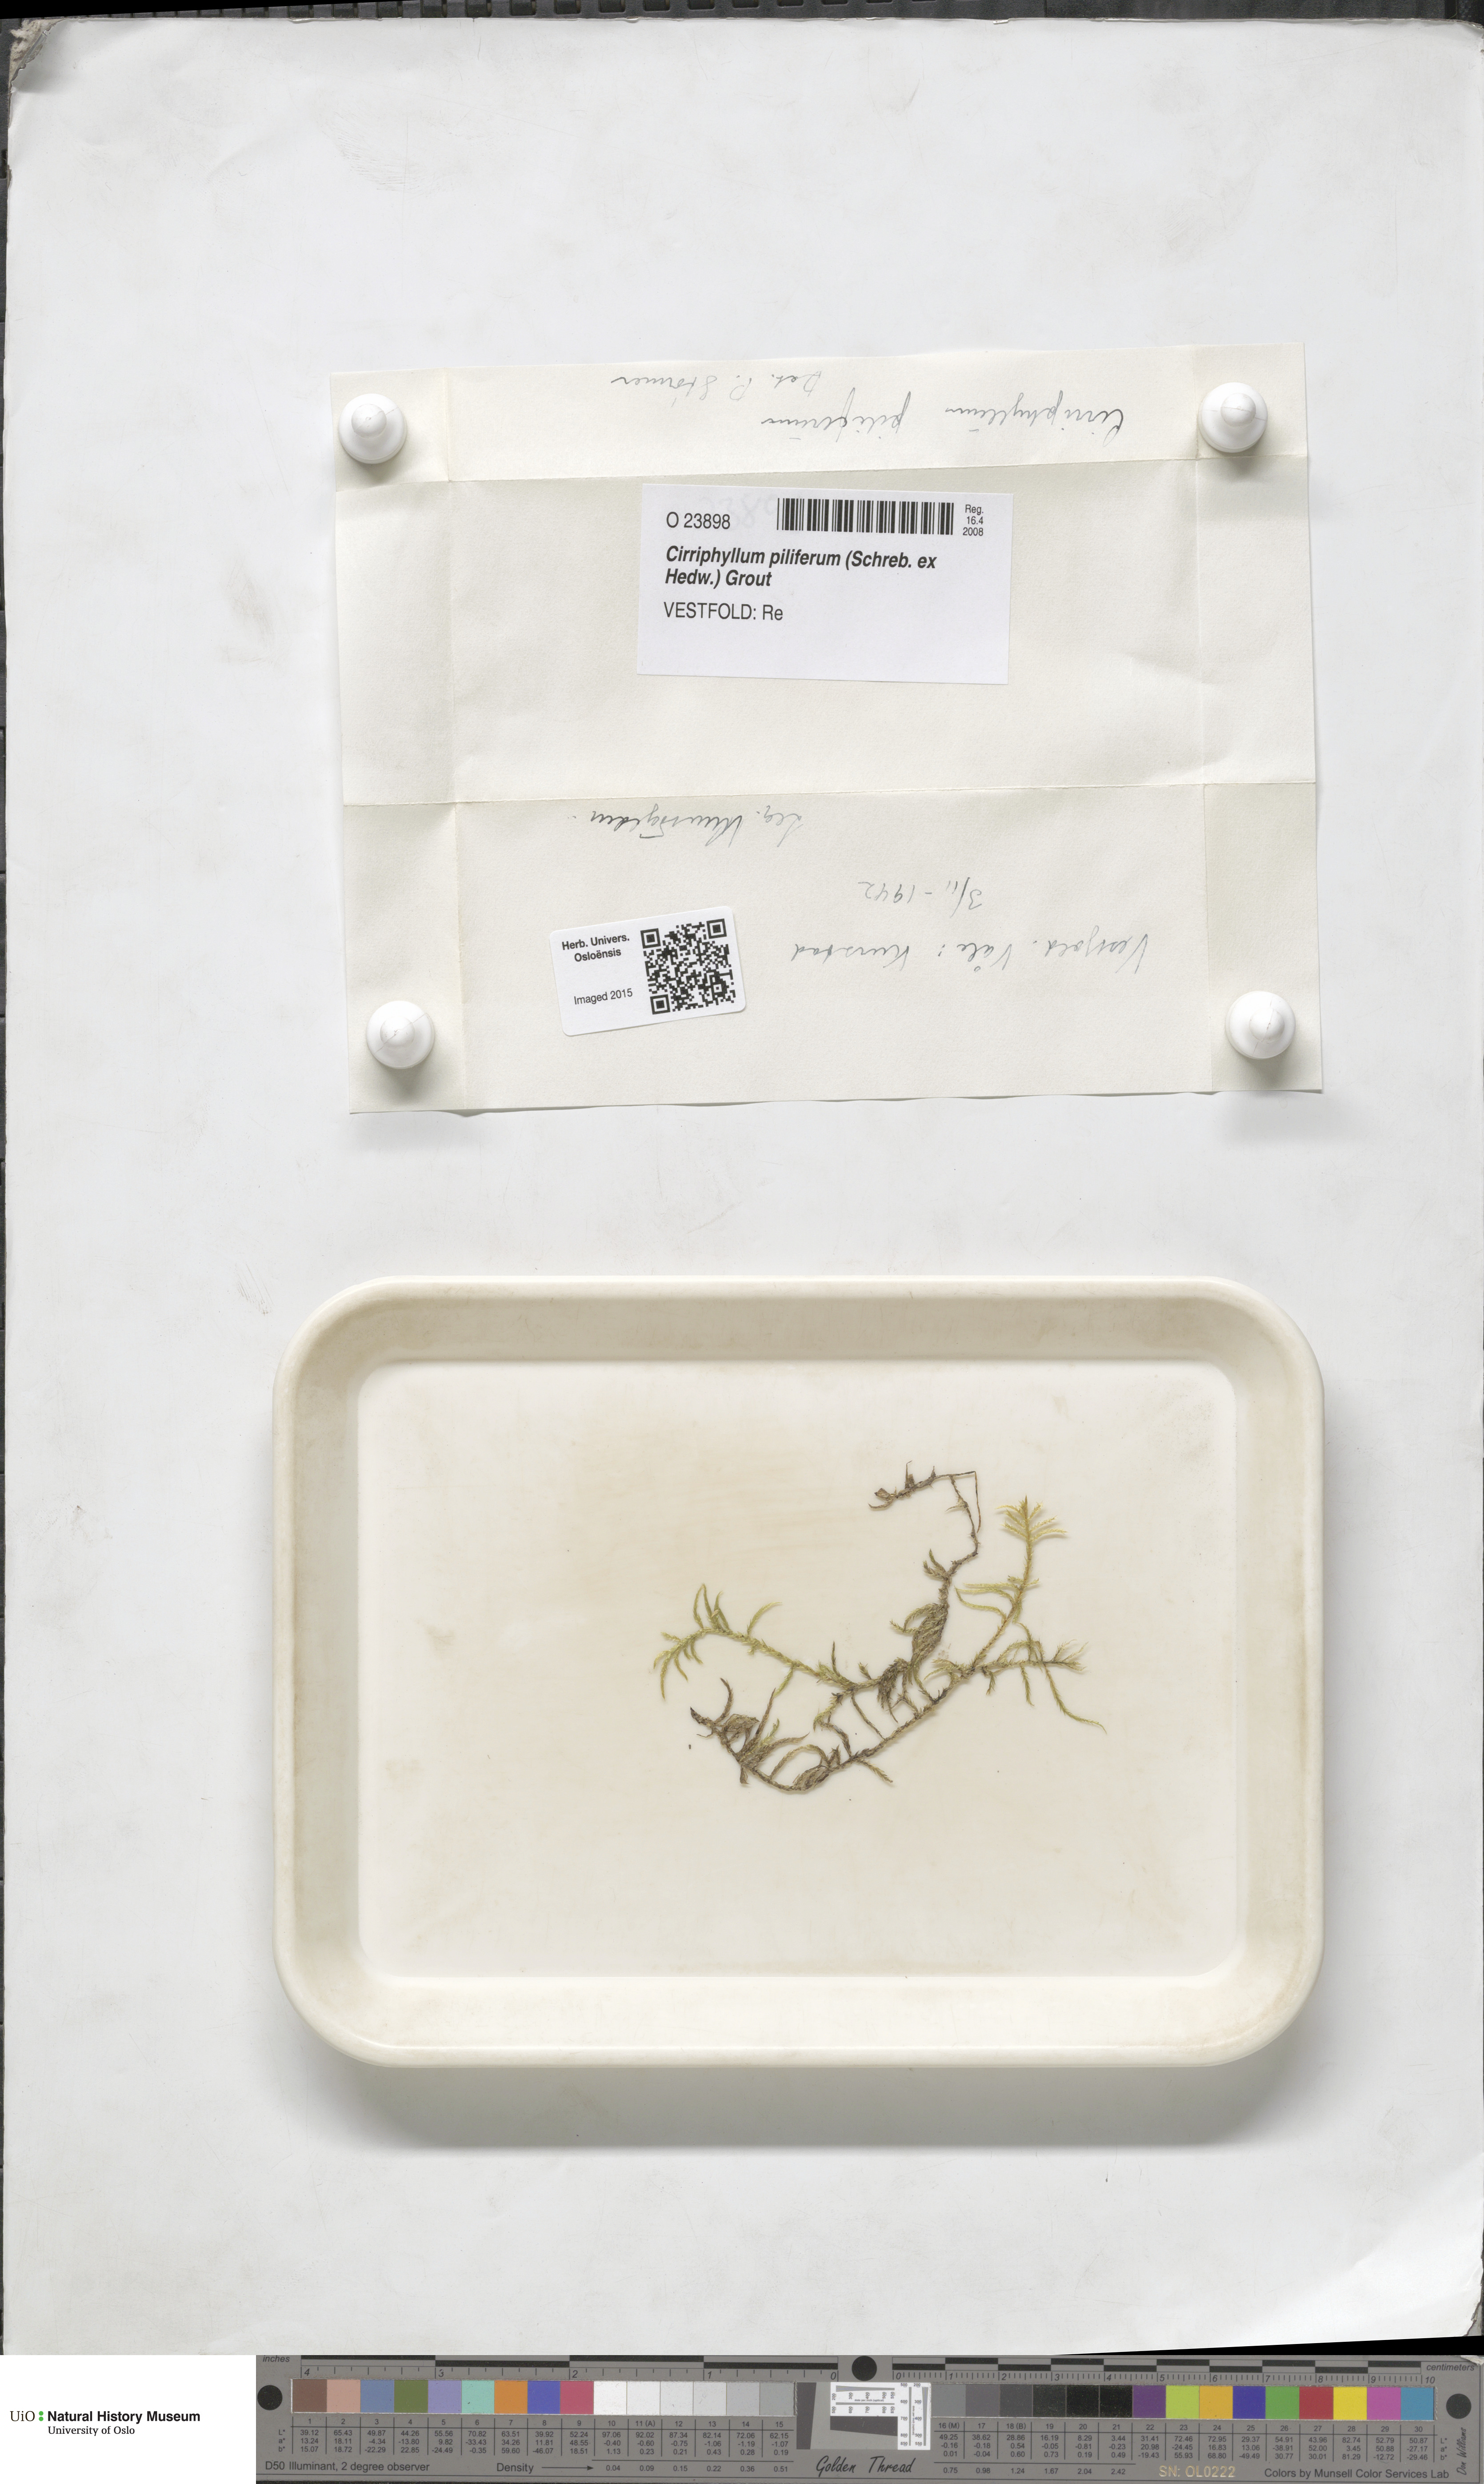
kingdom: Plantae
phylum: Bryophyta
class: Bryopsida
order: Hypnales
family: Brachytheciaceae
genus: Cirriphyllum
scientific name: Cirriphyllum piliferum
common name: Hair-pointed moss
